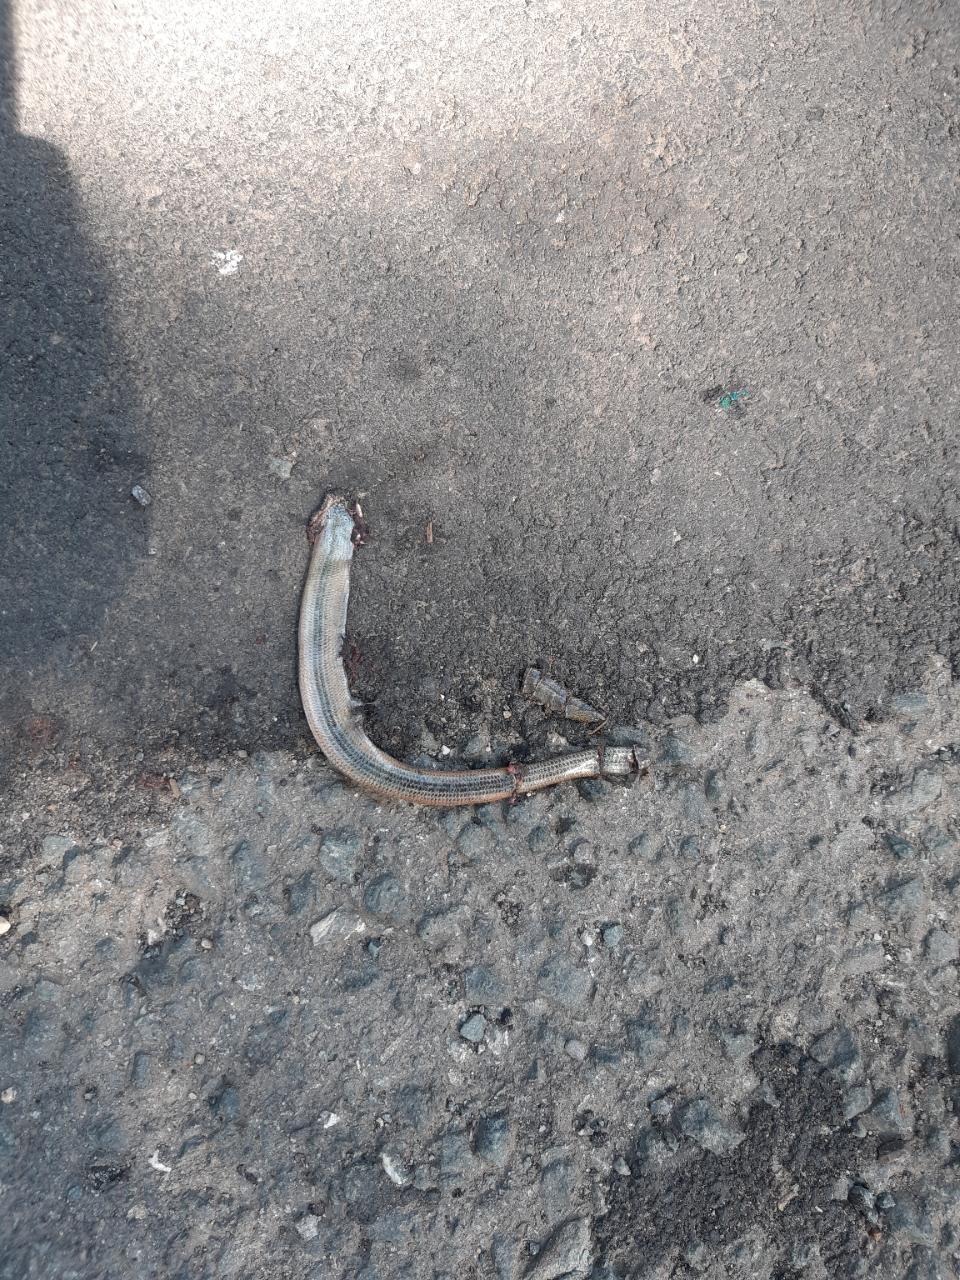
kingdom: Animalia
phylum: Chordata
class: Squamata
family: Anguidae
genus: Anguis
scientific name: Anguis fragilis
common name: Slow worm
